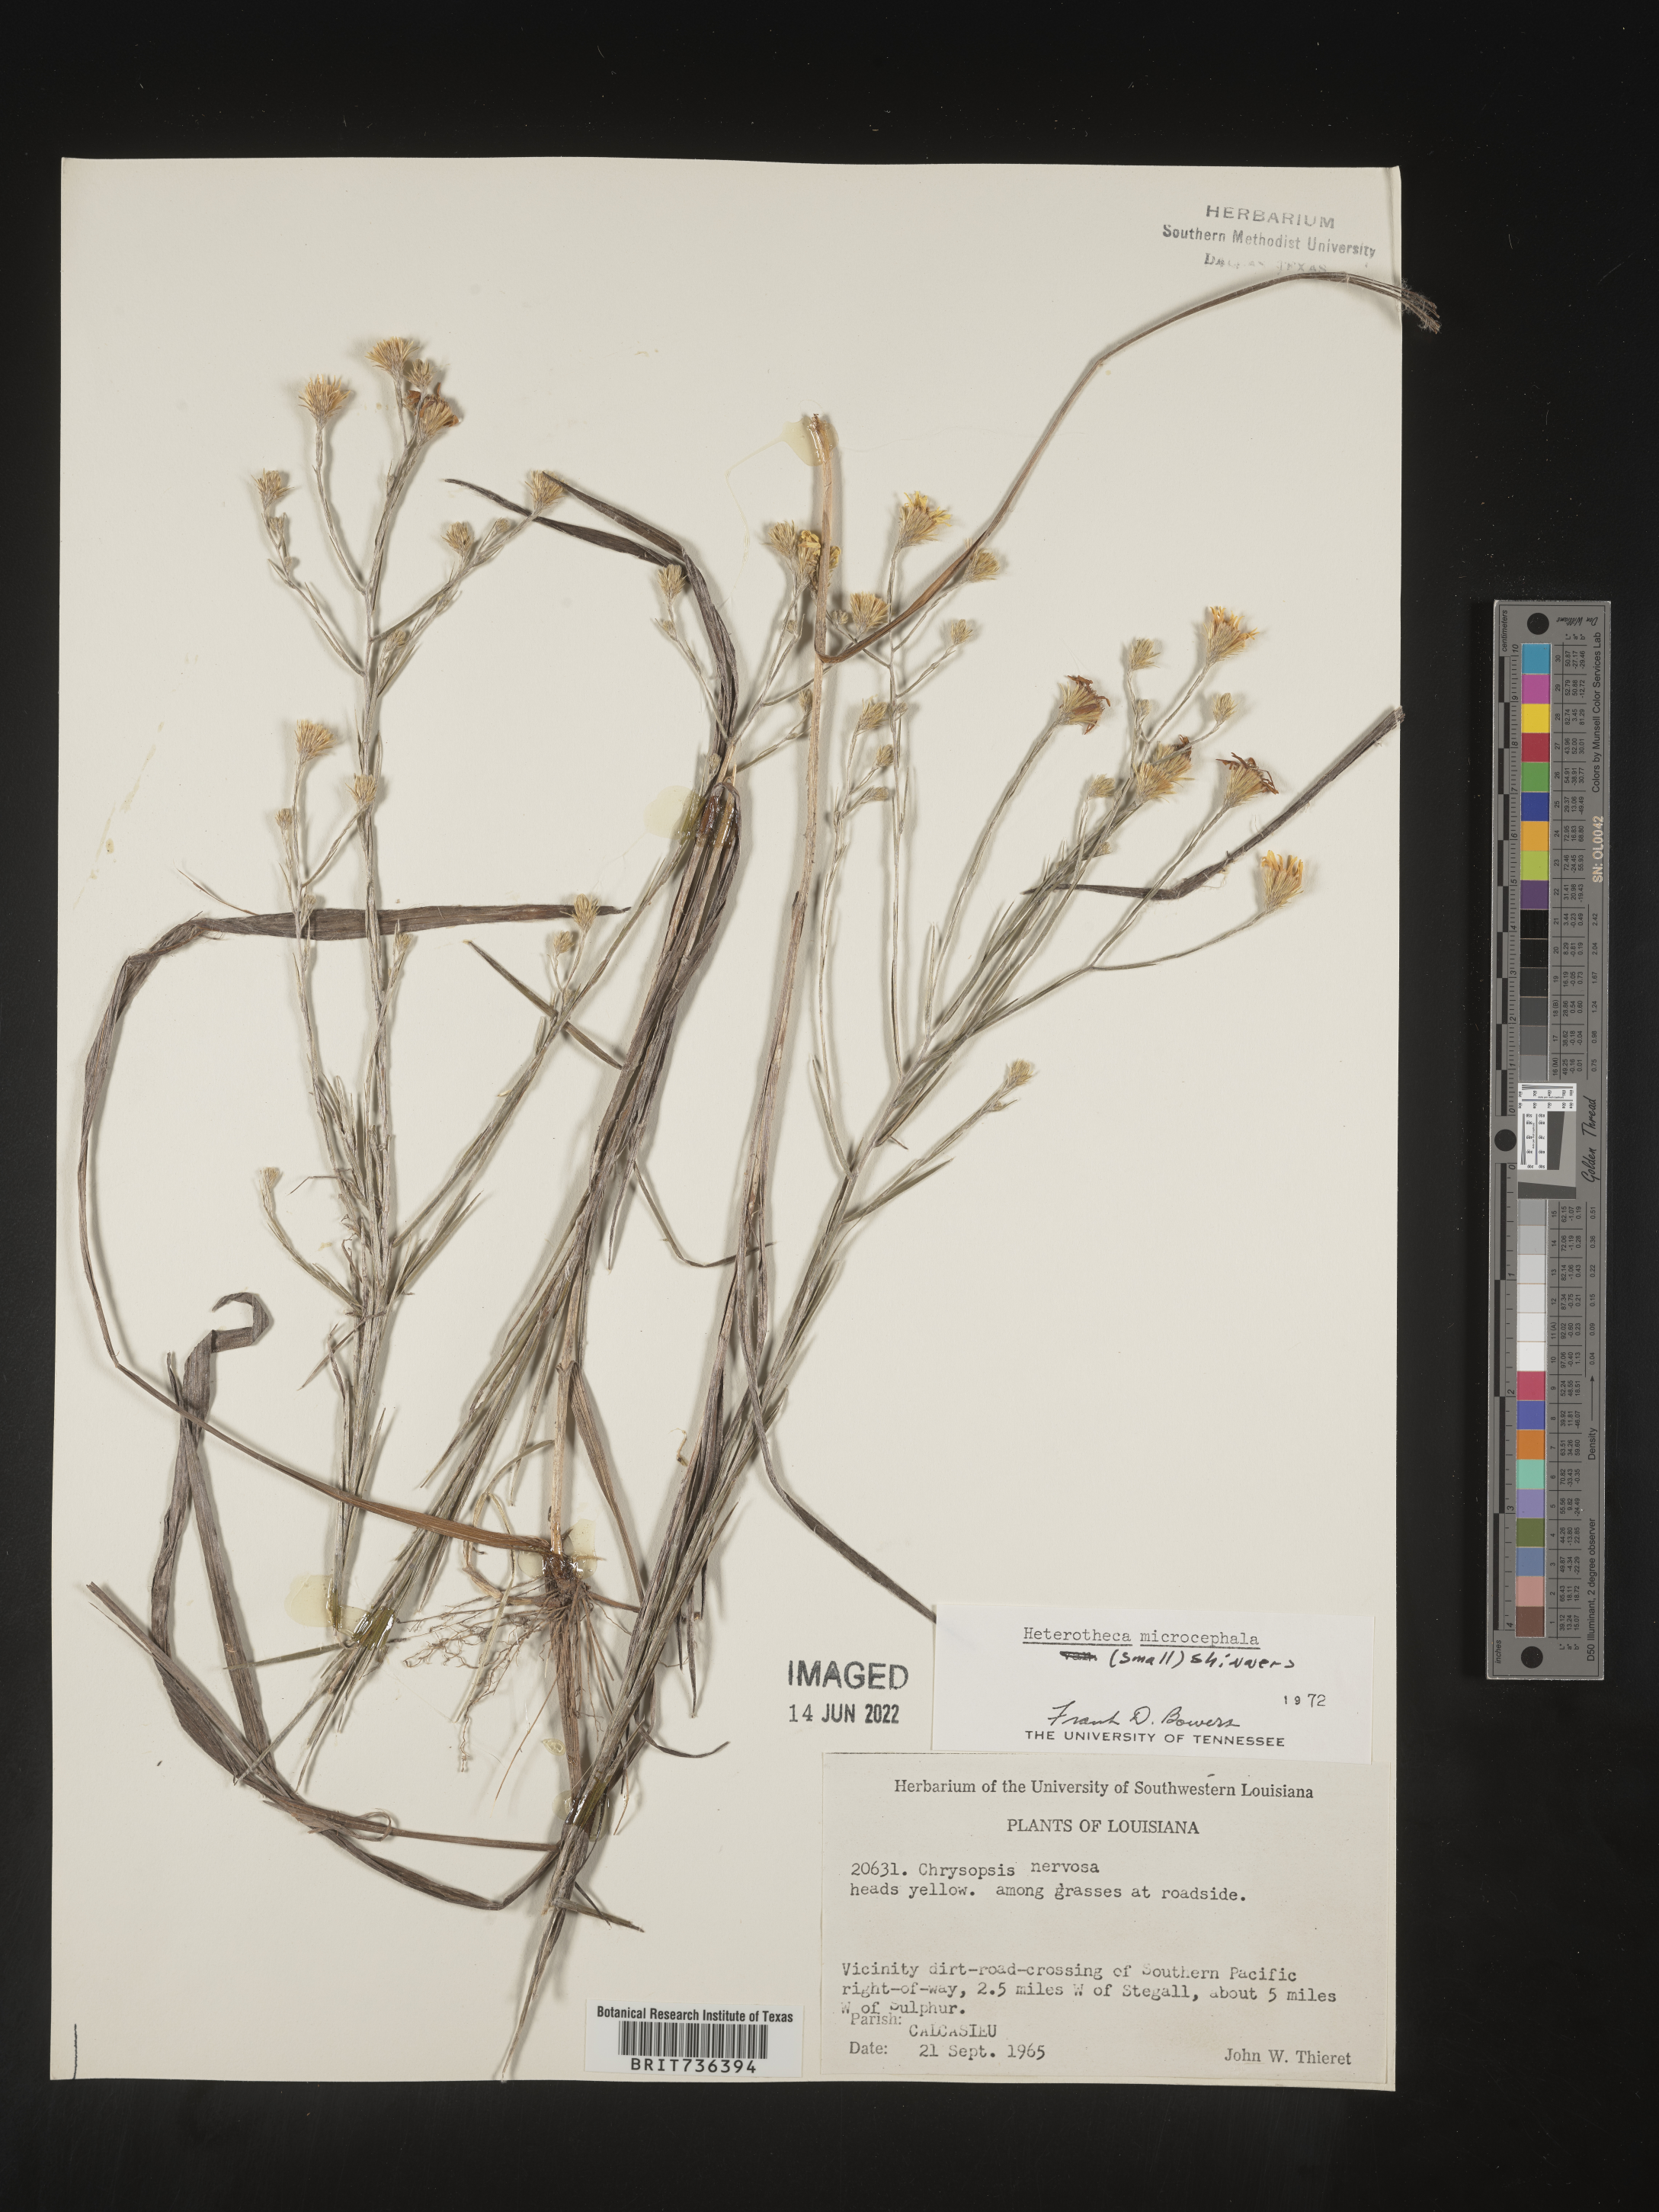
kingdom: Plantae
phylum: Tracheophyta
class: Magnoliopsida
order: Asterales
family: Asteraceae
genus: Pityopsis
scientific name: Pityopsis tenuifolia
